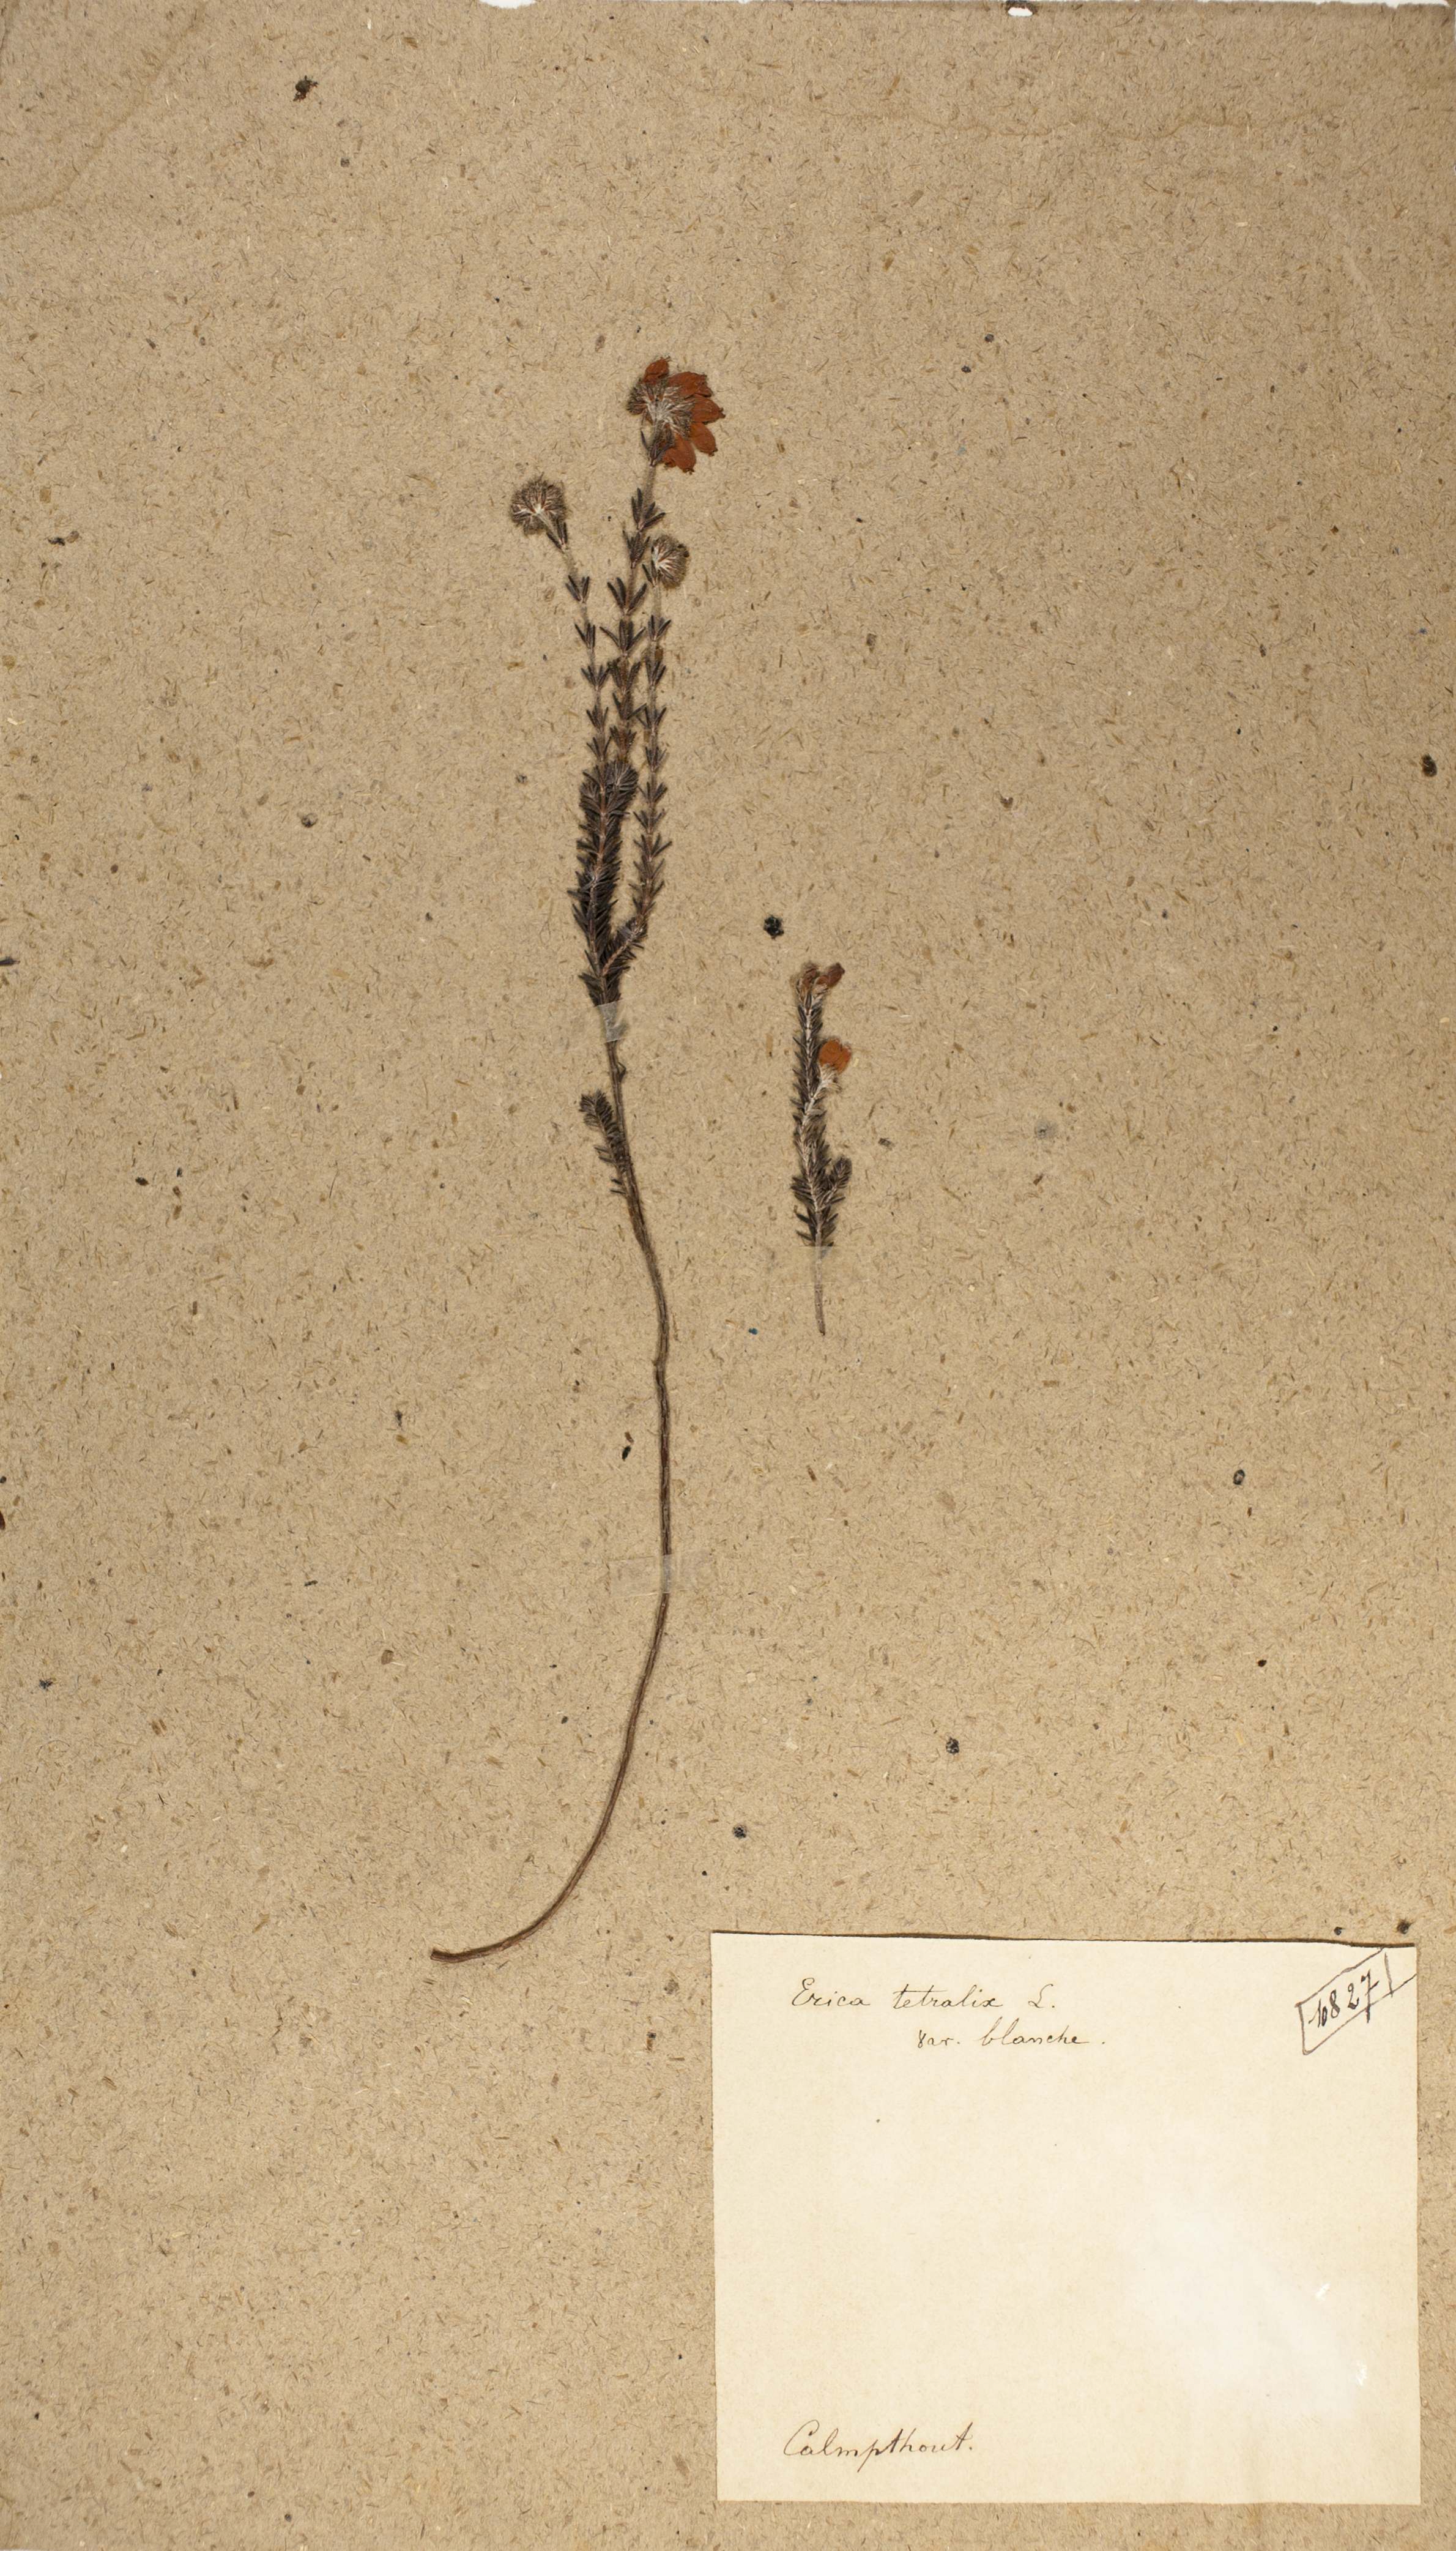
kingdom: Plantae
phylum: Tracheophyta
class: Magnoliopsida
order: Ericales
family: Ericaceae
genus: Erica
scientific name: Erica tetralix
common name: Cross-leaved heath
